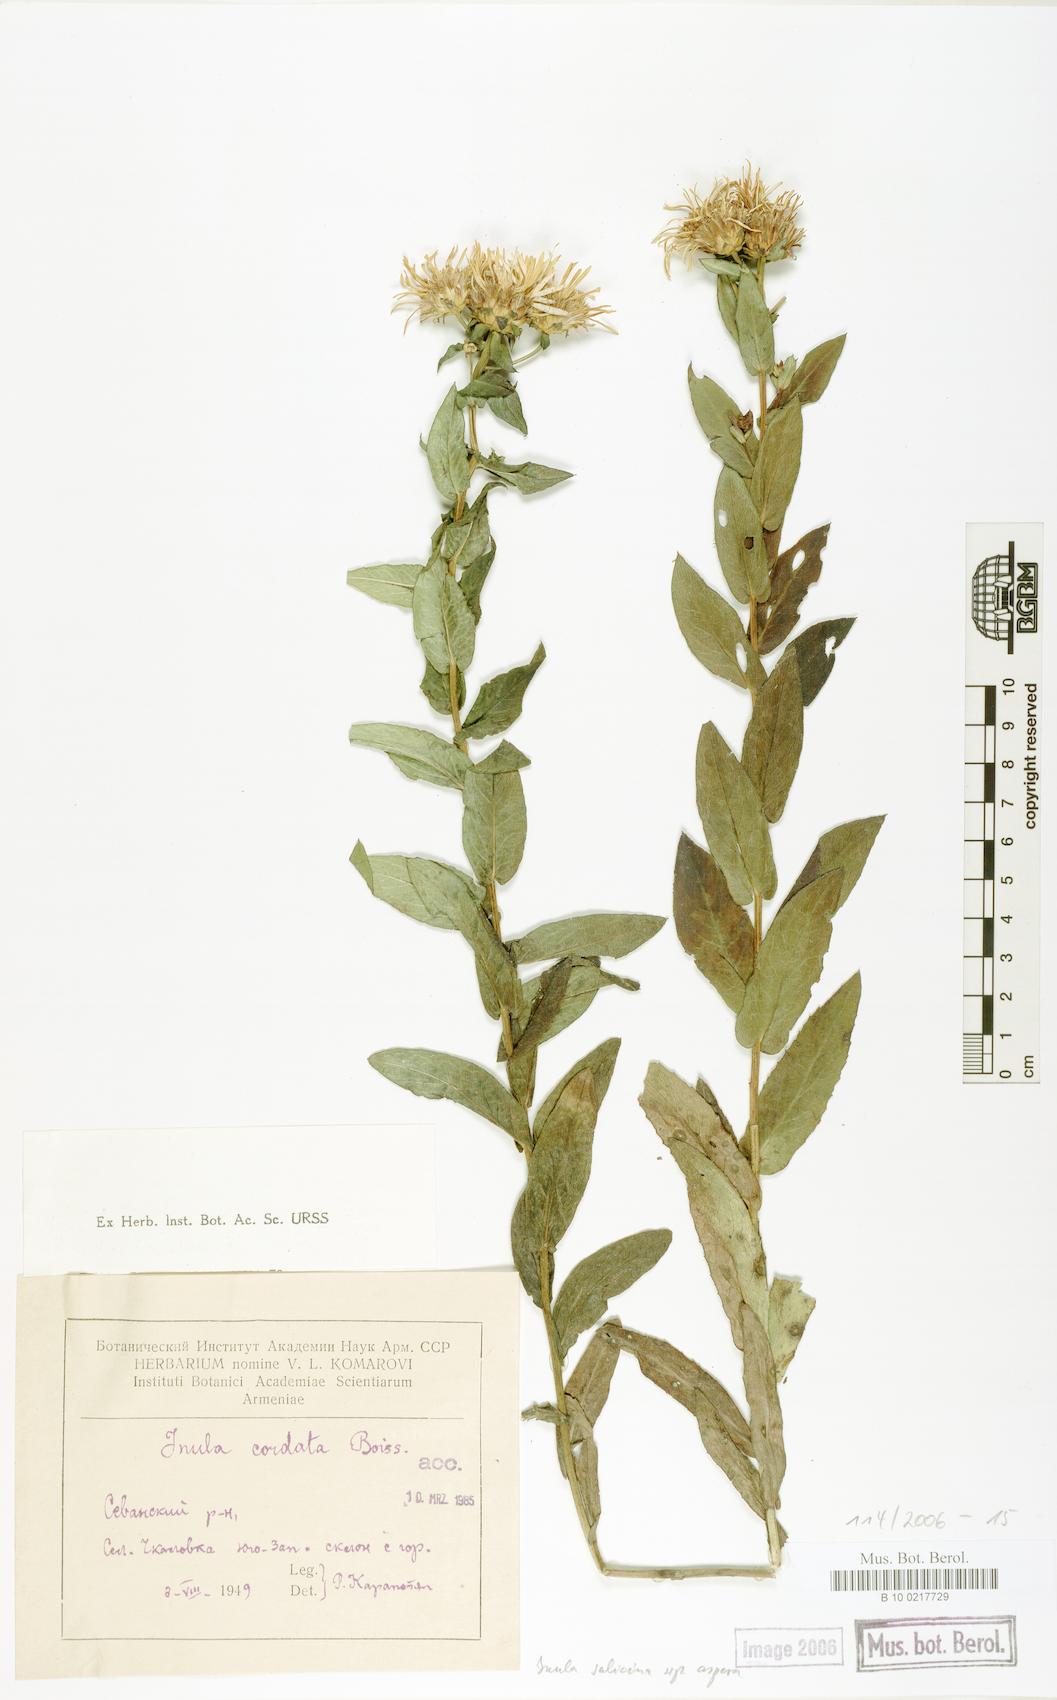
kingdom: Plantae
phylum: Tracheophyta
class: Magnoliopsida
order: Asterales
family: Asteraceae
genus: Pentanema
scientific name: Pentanema salicinum
